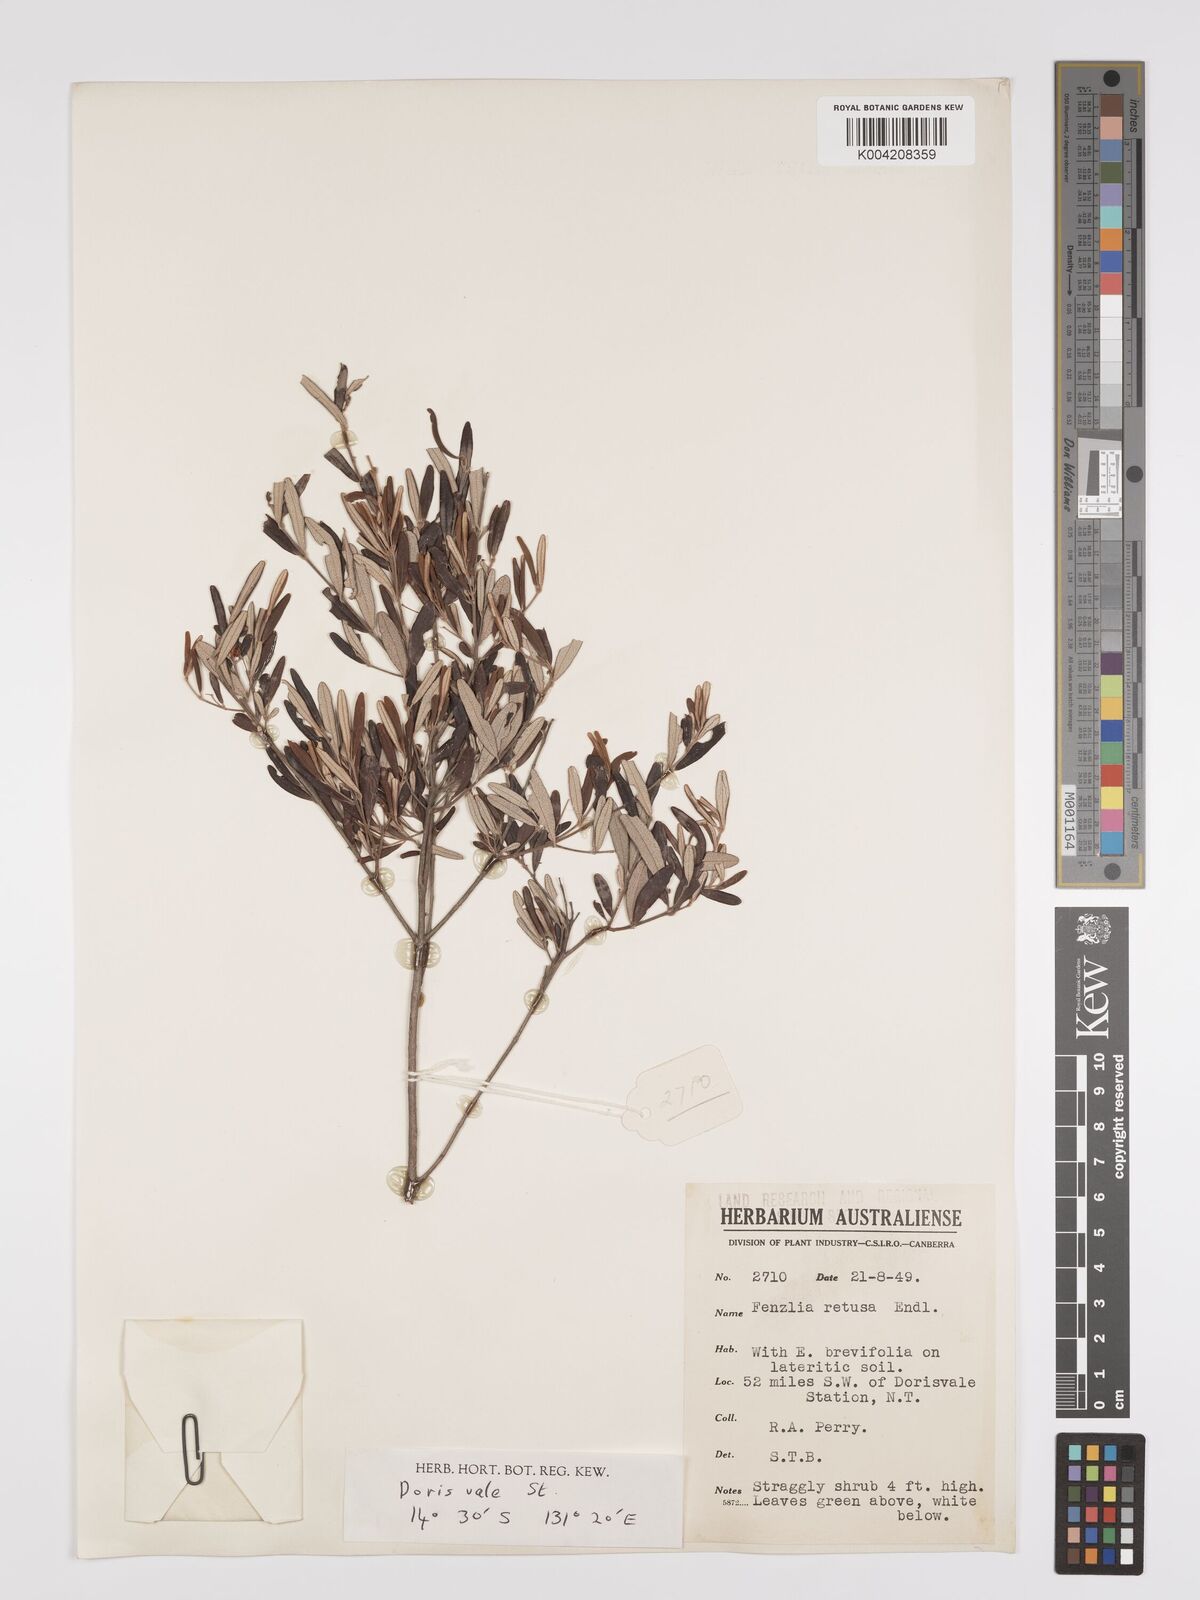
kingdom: Plantae
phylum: Tracheophyta
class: Magnoliopsida
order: Myrtales
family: Myrtaceae
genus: Lithomyrtus
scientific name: Lithomyrtus retusa
